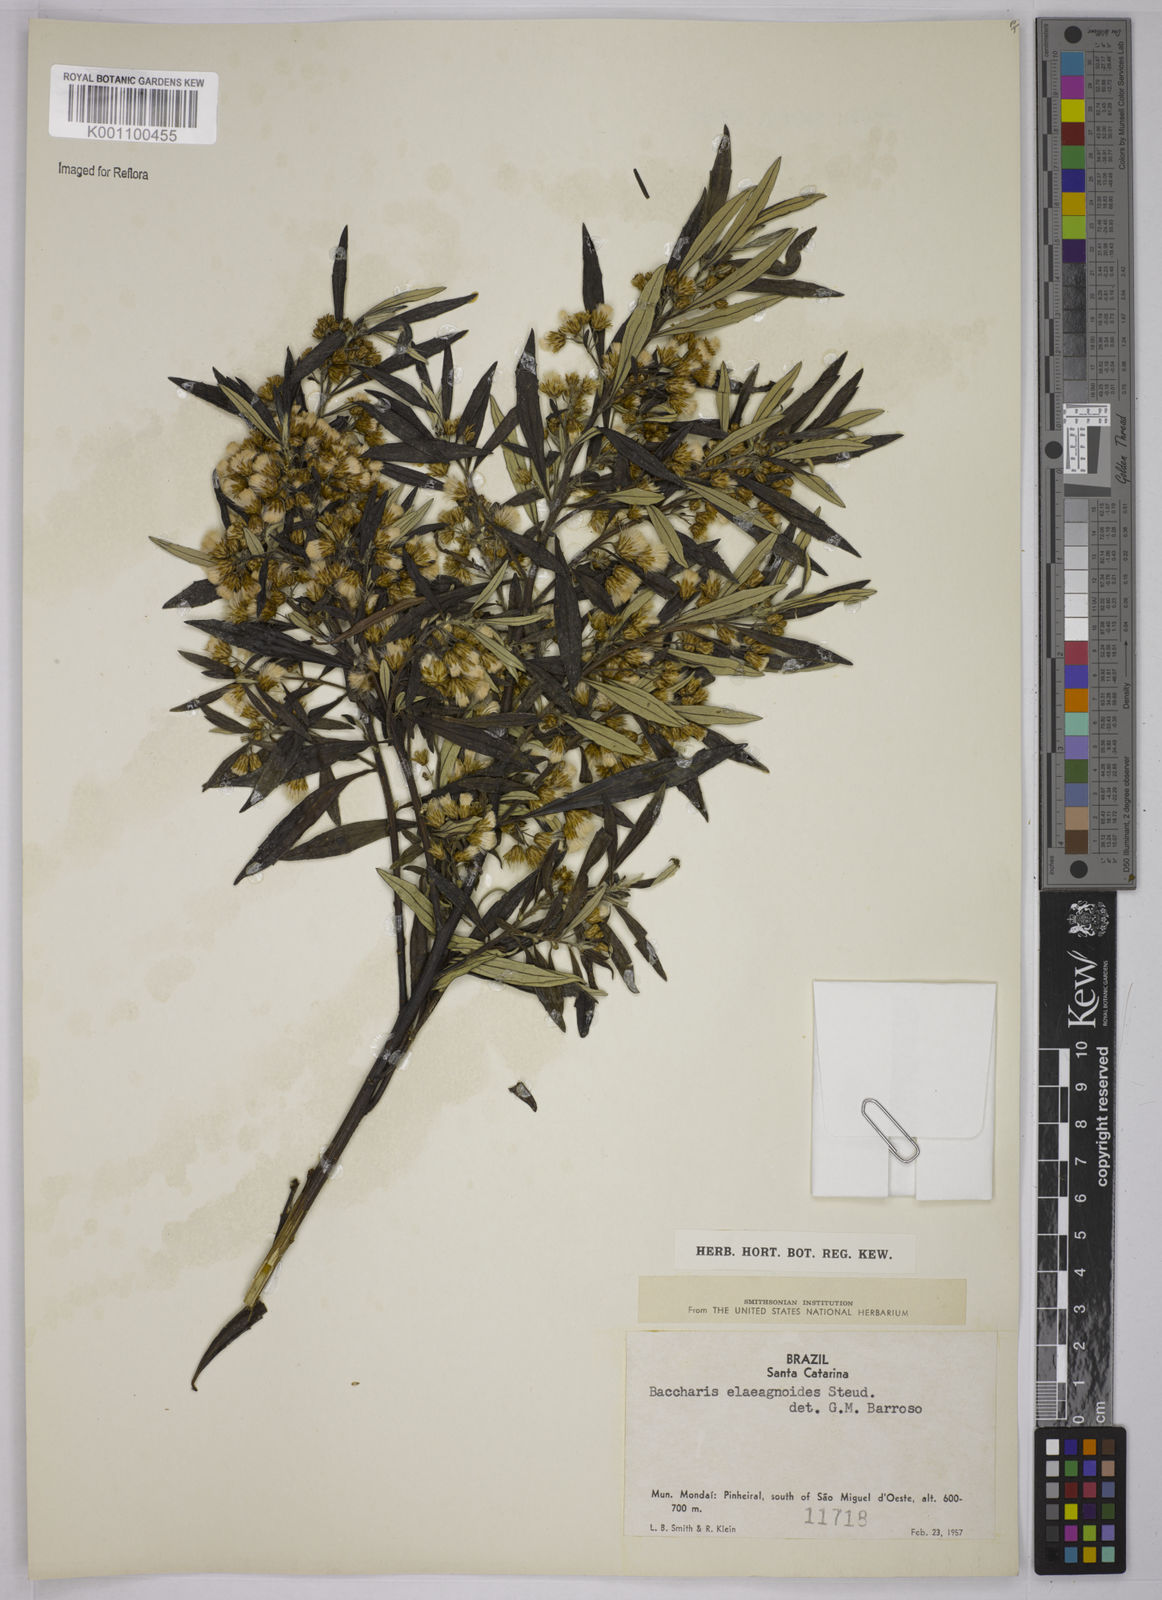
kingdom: Plantae
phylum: Tracheophyta
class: Magnoliopsida
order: Asterales
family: Asteraceae
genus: Baccharis
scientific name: Baccharis
